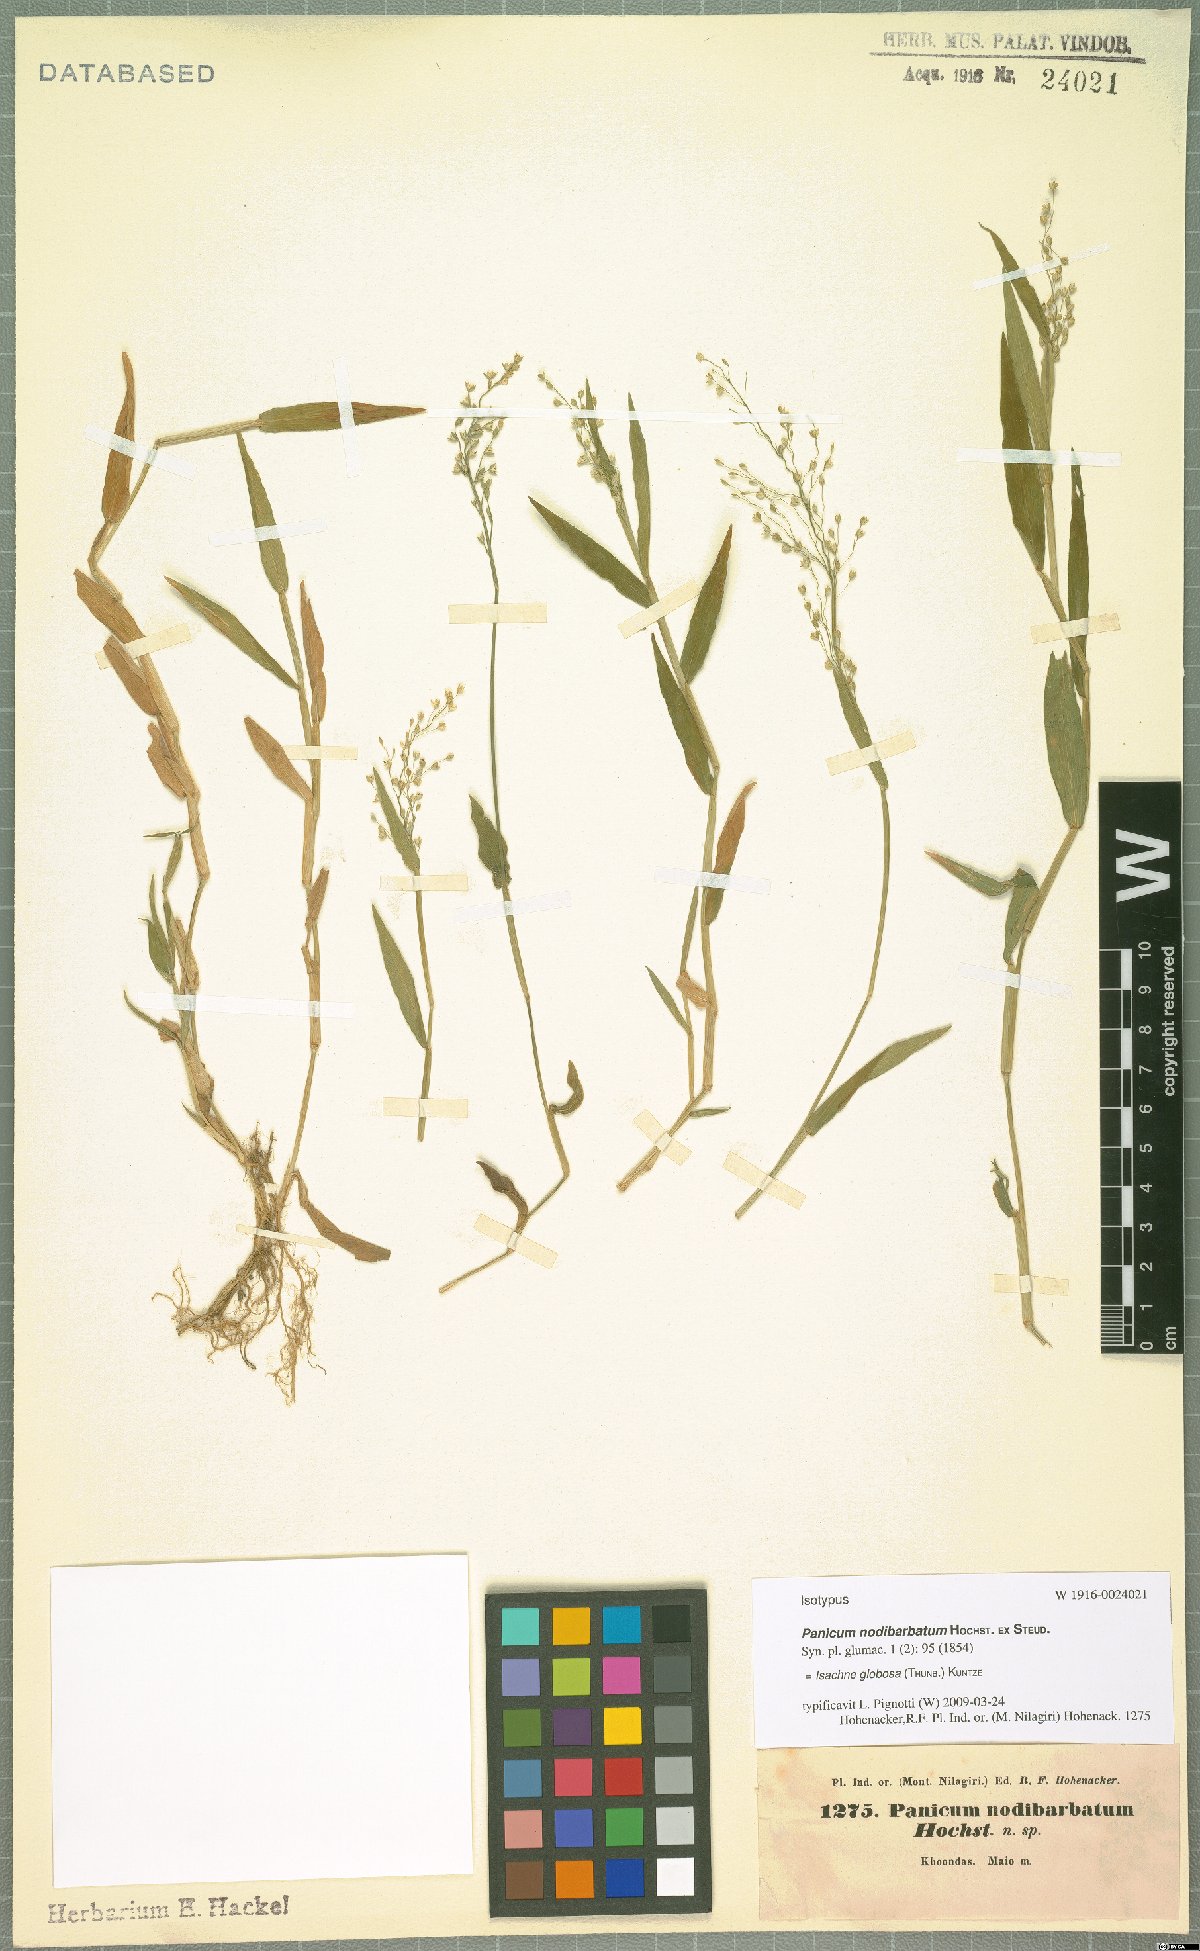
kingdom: Plantae
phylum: Tracheophyta
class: Liliopsida
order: Poales
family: Poaceae
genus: Isachne
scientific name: Isachne globosa
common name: Swamp millet
